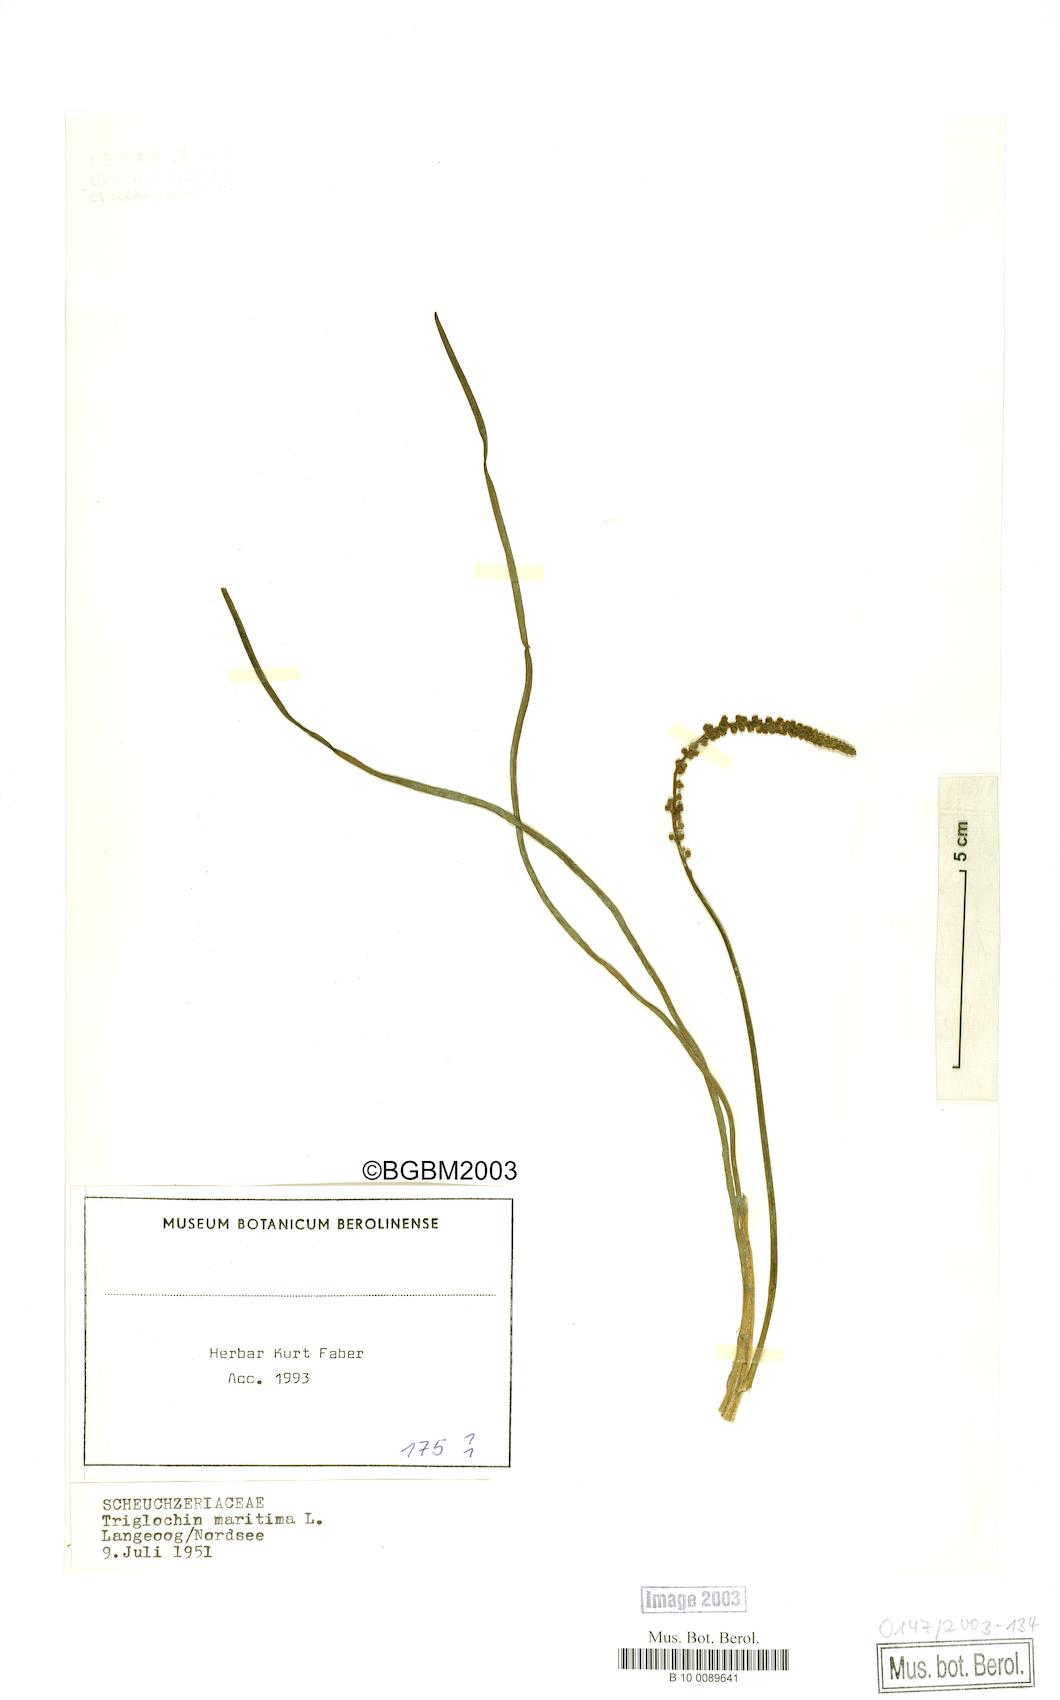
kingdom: Plantae
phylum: Tracheophyta
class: Liliopsida
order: Alismatales
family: Juncaginaceae
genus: Triglochin
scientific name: Triglochin maritima
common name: Sea arrowgrass
